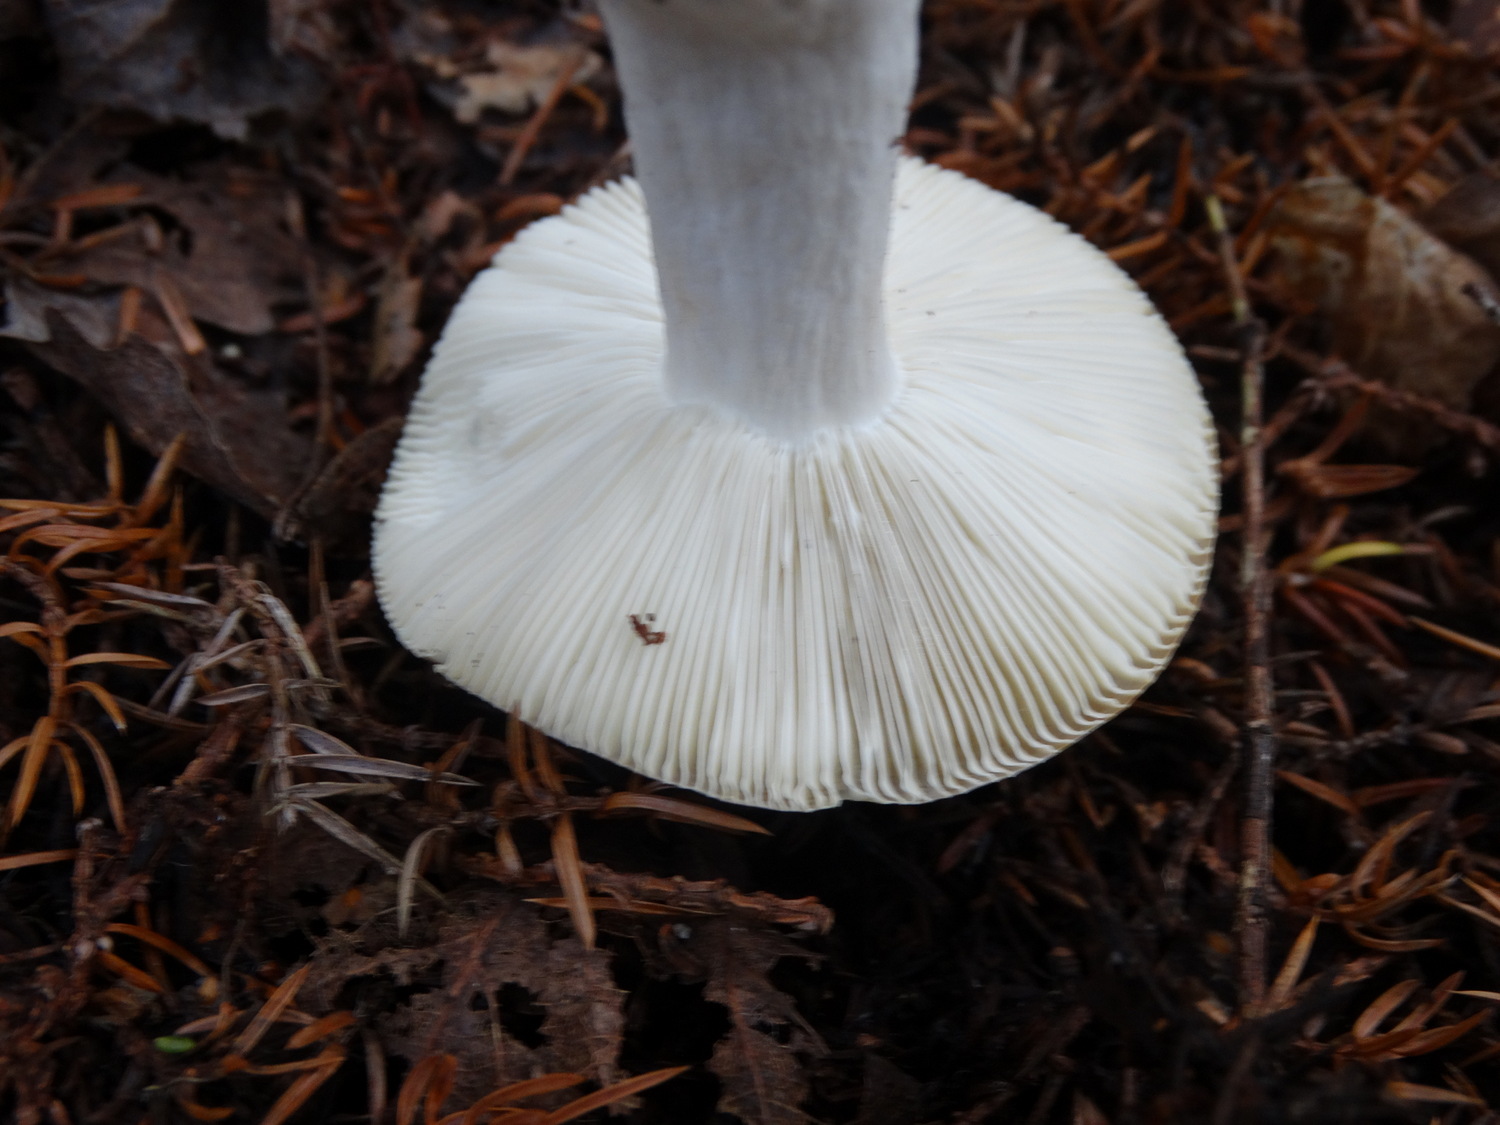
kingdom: Fungi
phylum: Basidiomycota
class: Agaricomycetes
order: Russulales
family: Russulaceae
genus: Russula
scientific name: Russula
